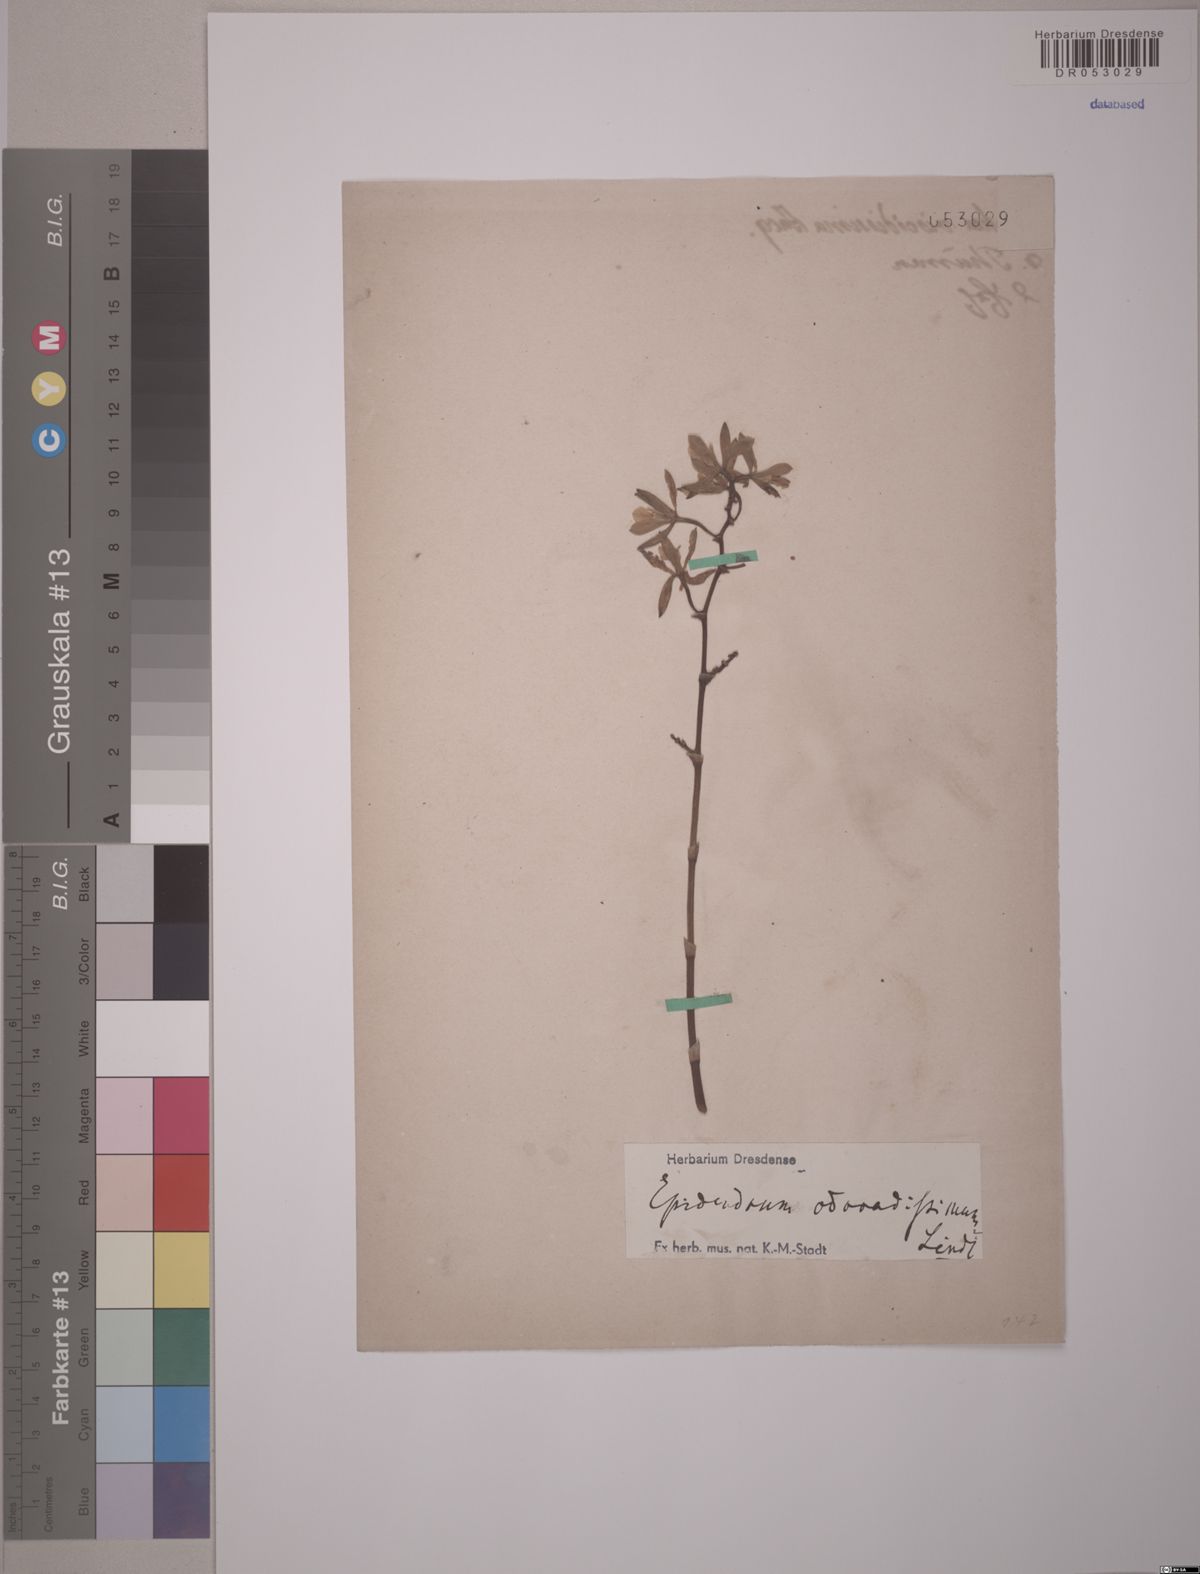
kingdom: Plantae
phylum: Tracheophyta
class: Liliopsida
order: Asparagales
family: Orchidaceae
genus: Encyclia
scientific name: Encyclia patens
